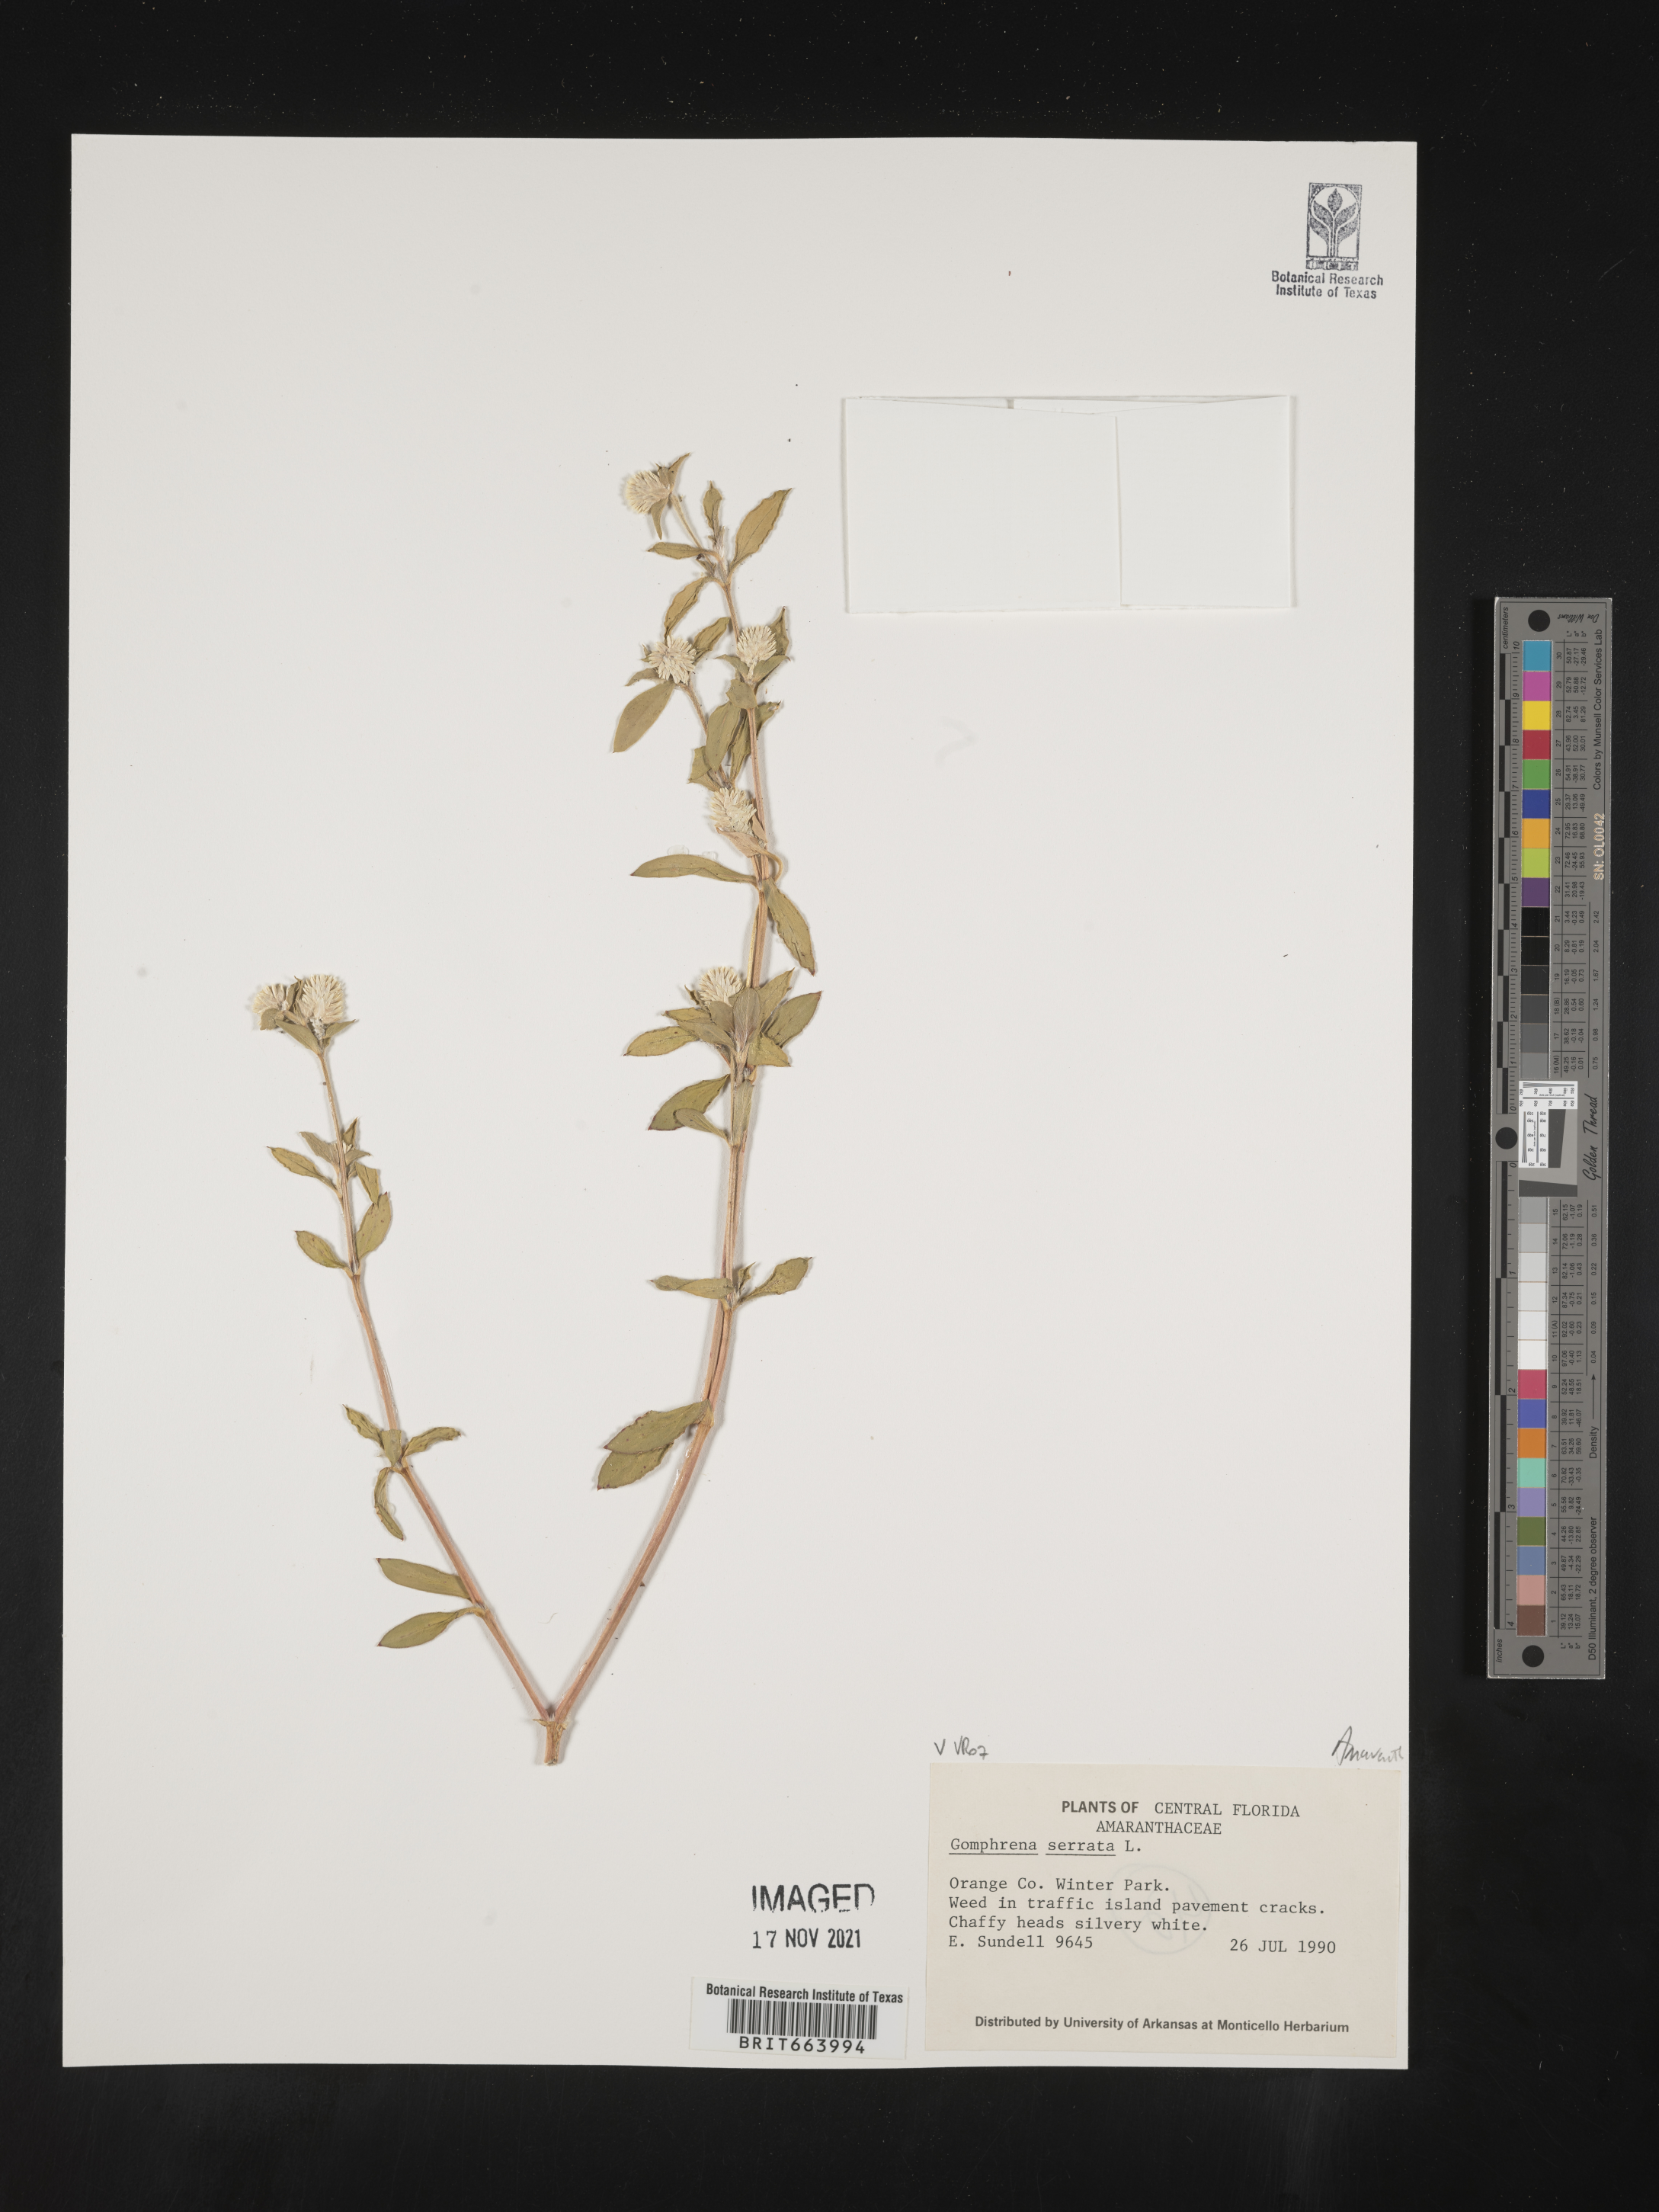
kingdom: Plantae
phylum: Tracheophyta
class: Magnoliopsida
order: Caryophyllales
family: Amaranthaceae
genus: Gomphrena
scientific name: Gomphrena
